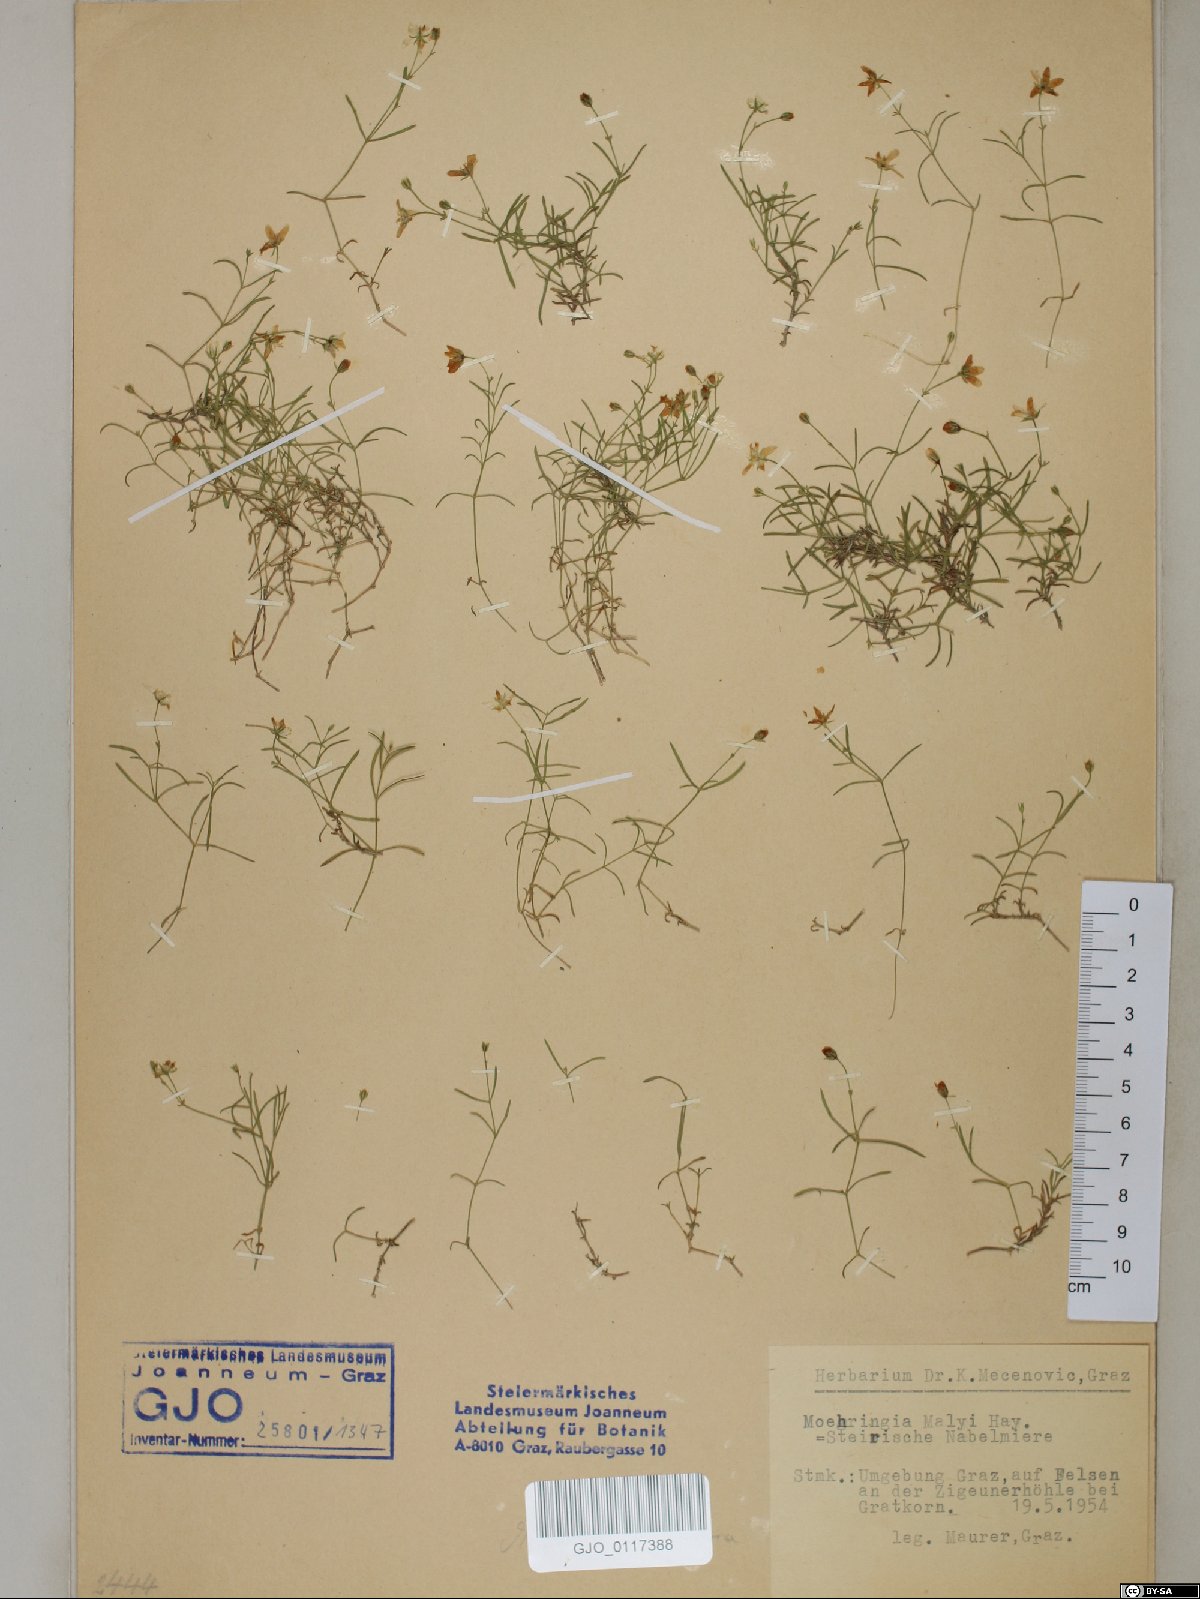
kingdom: Plantae
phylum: Tracheophyta
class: Magnoliopsida
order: Caryophyllales
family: Caryophyllaceae
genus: Moehringia
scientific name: Moehringia bavarica
